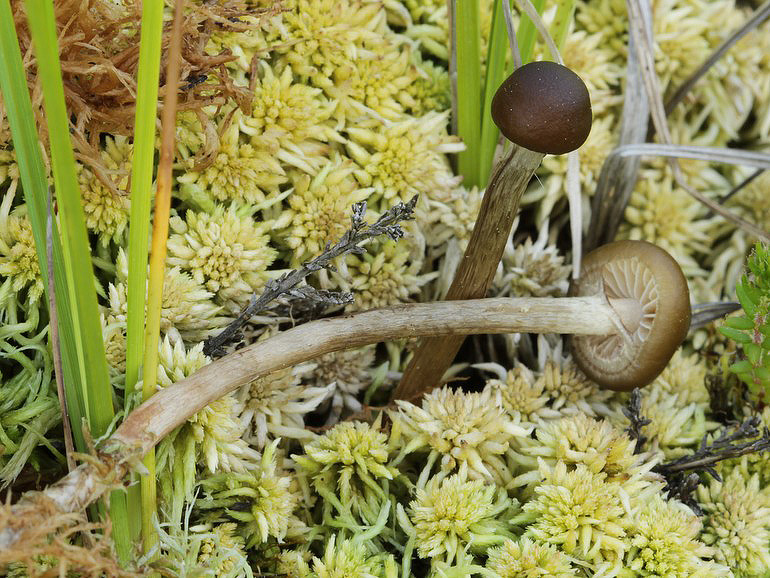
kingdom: Fungi
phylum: Basidiomycota
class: Agaricomycetes
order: Agaricales
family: Strophariaceae
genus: Hypholoma
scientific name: Hypholoma myosotis
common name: slimet svovlhat
